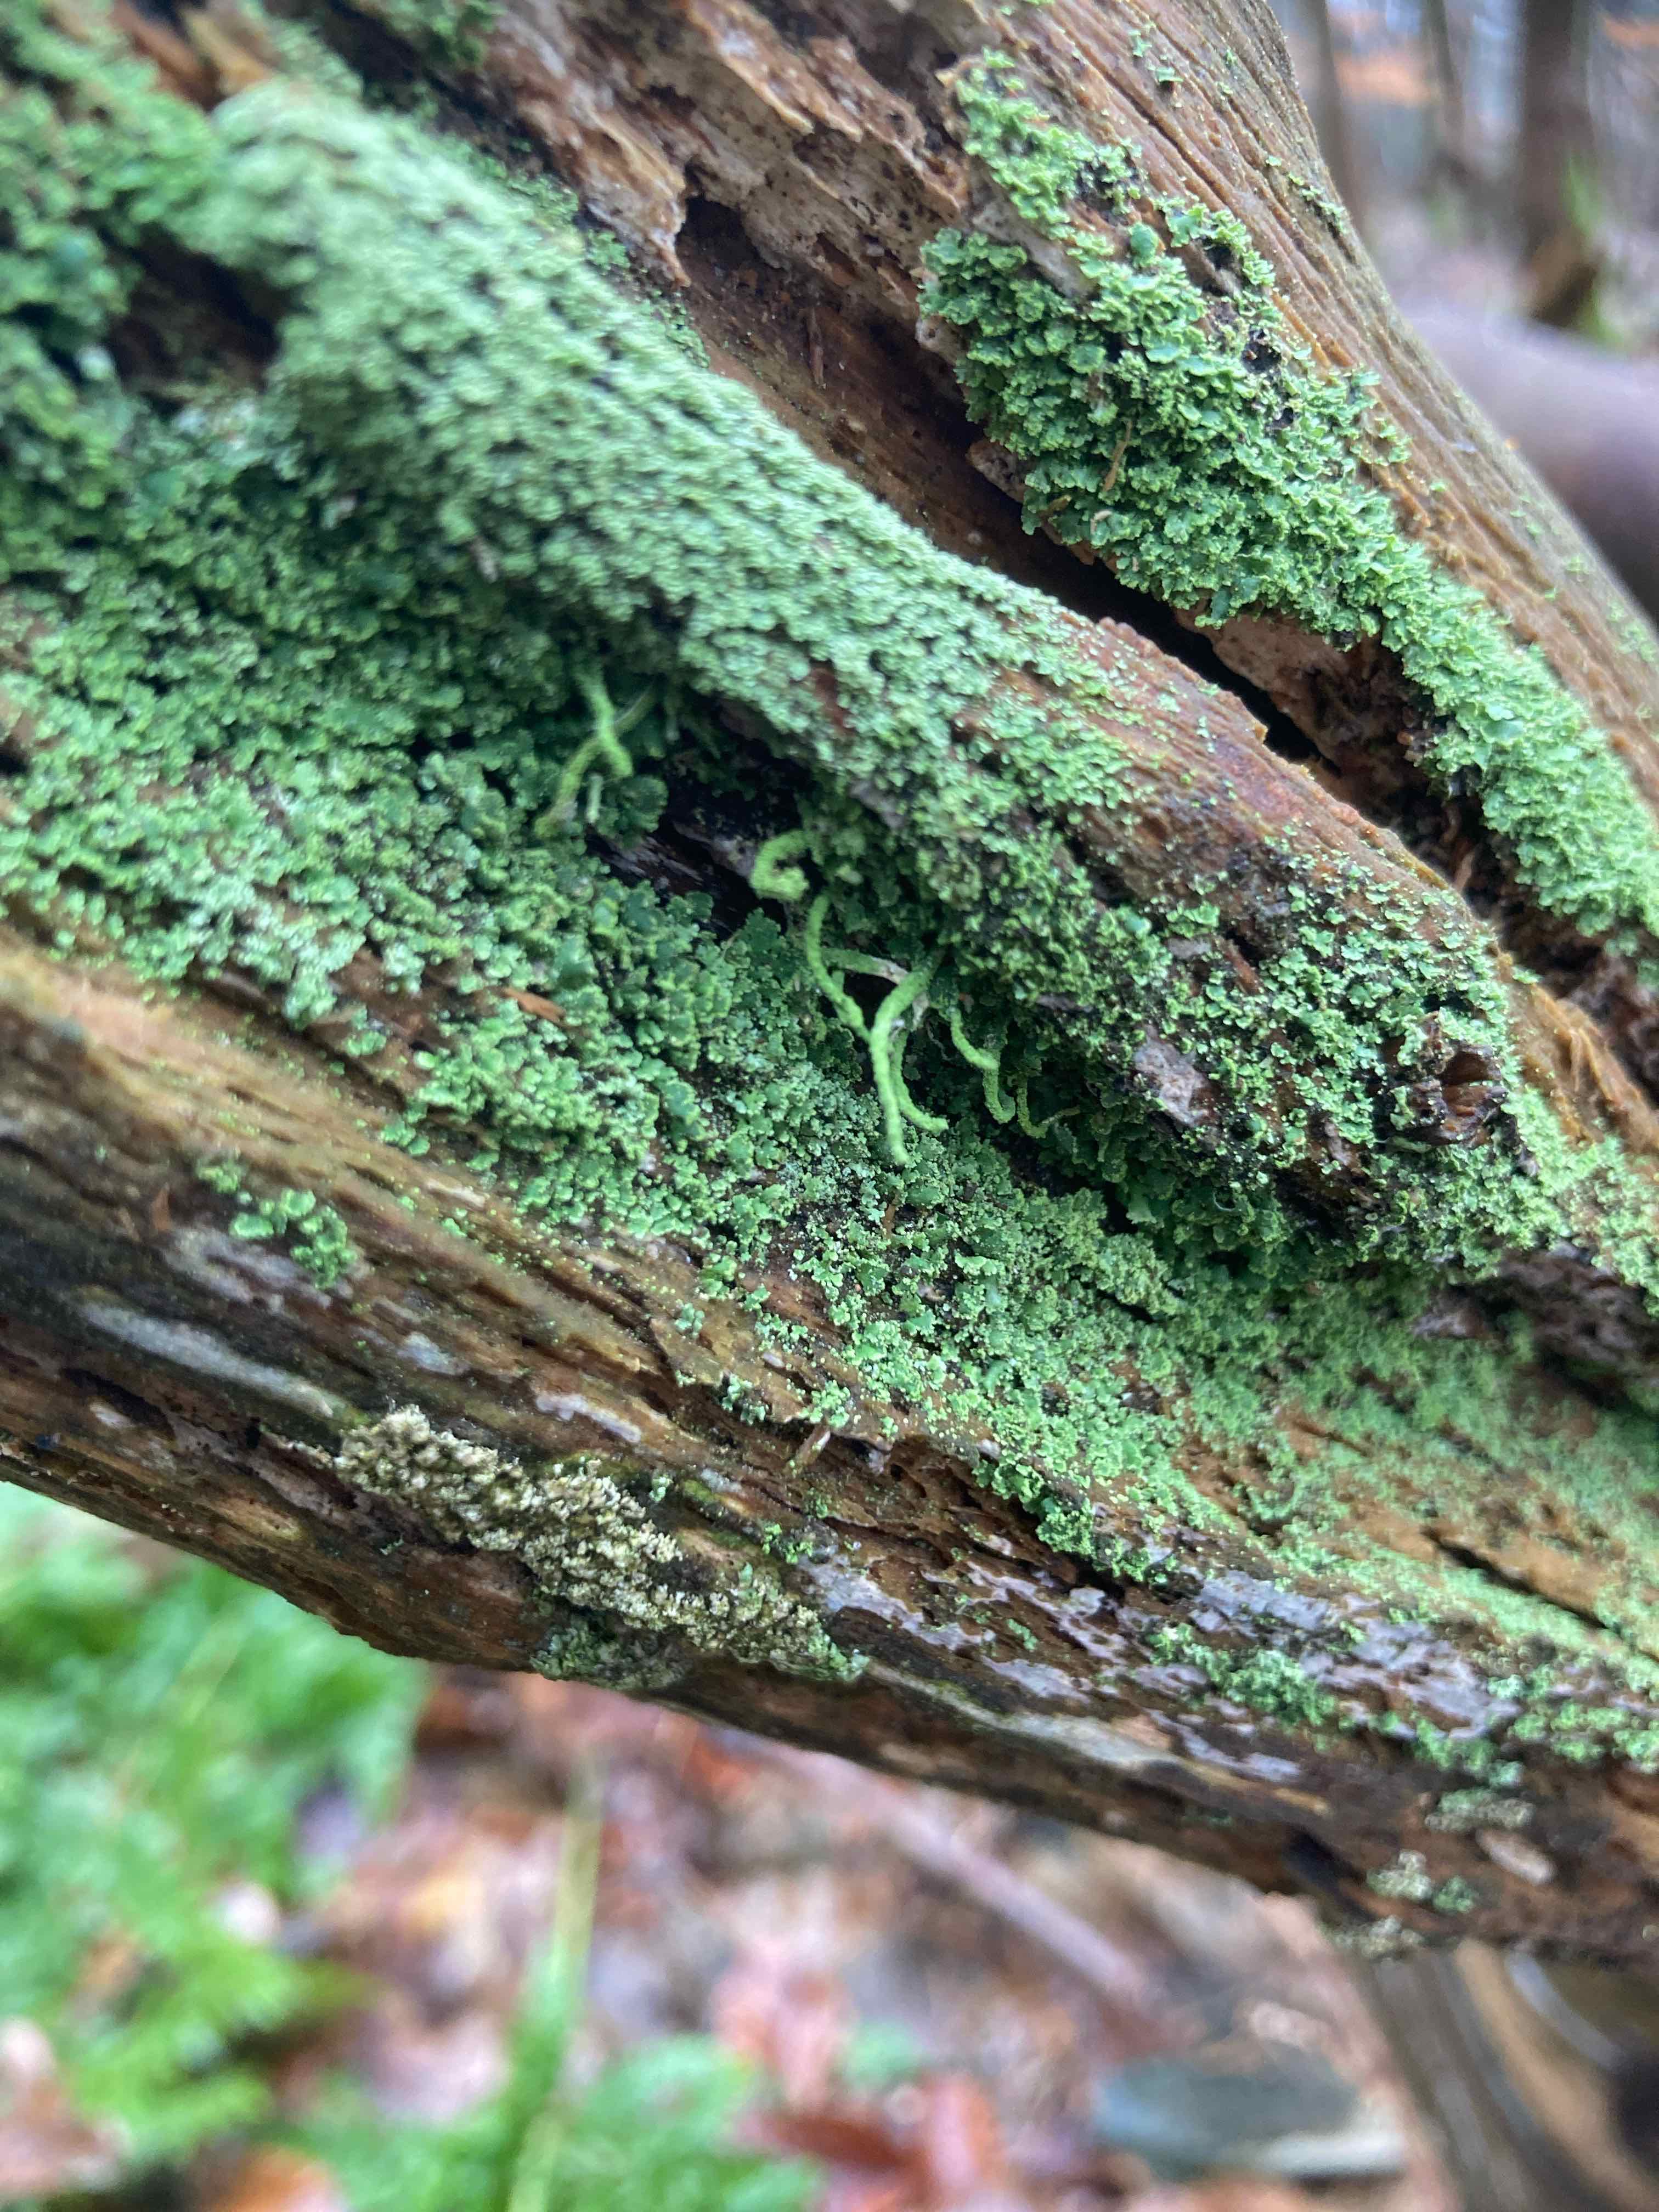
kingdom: Fungi
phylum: Ascomycota
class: Lecanoromycetes
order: Lecanorales
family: Cladoniaceae
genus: Cladonia
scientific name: Cladonia coniocraea
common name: træfods-bægerlav
